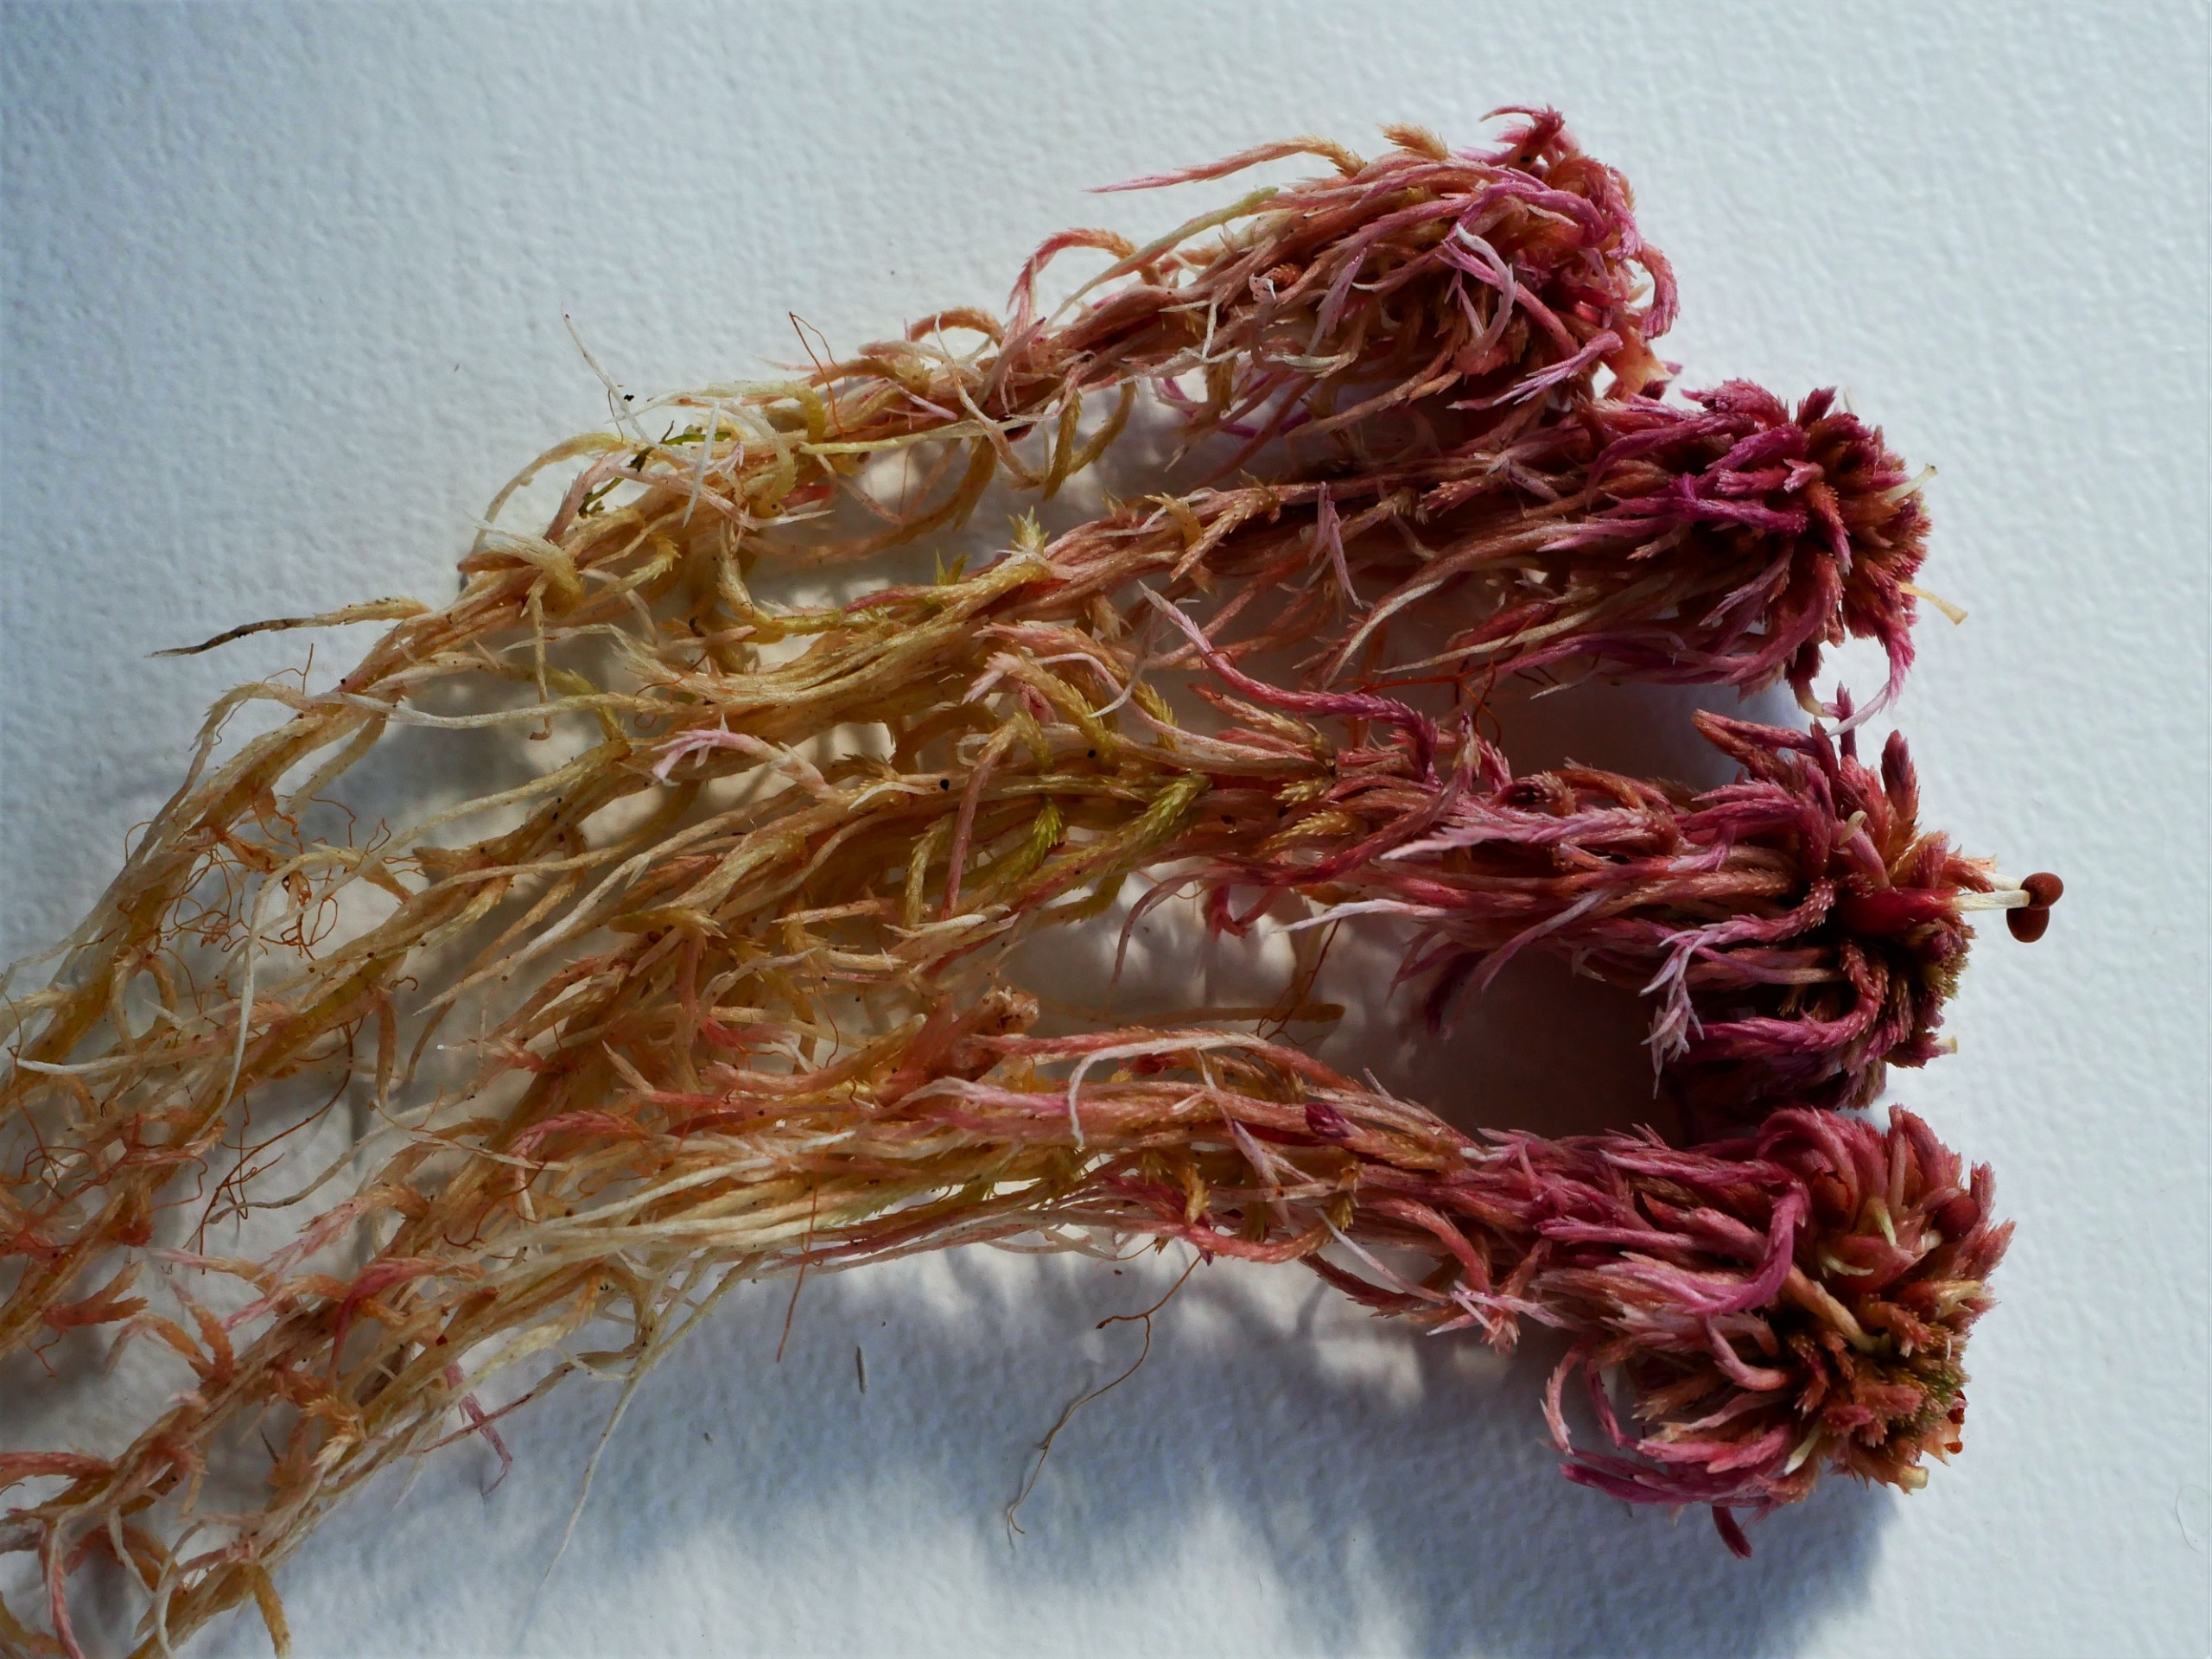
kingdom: Plantae
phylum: Bryophyta
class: Sphagnopsida
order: Sphagnales
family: Sphagnaceae
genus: Sphagnum
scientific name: Sphagnum capillifolium
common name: Plyds-tørvemos
